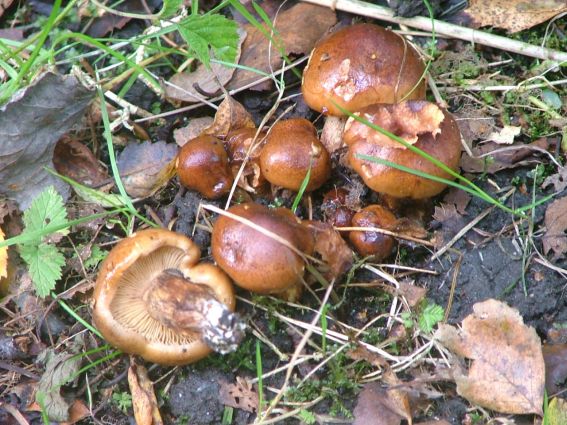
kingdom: Fungi
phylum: Basidiomycota
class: Agaricomycetes
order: Agaricales
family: Tricholomataceae
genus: Tricholoma
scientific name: Tricholoma fulvum
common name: birke-ridderhat
